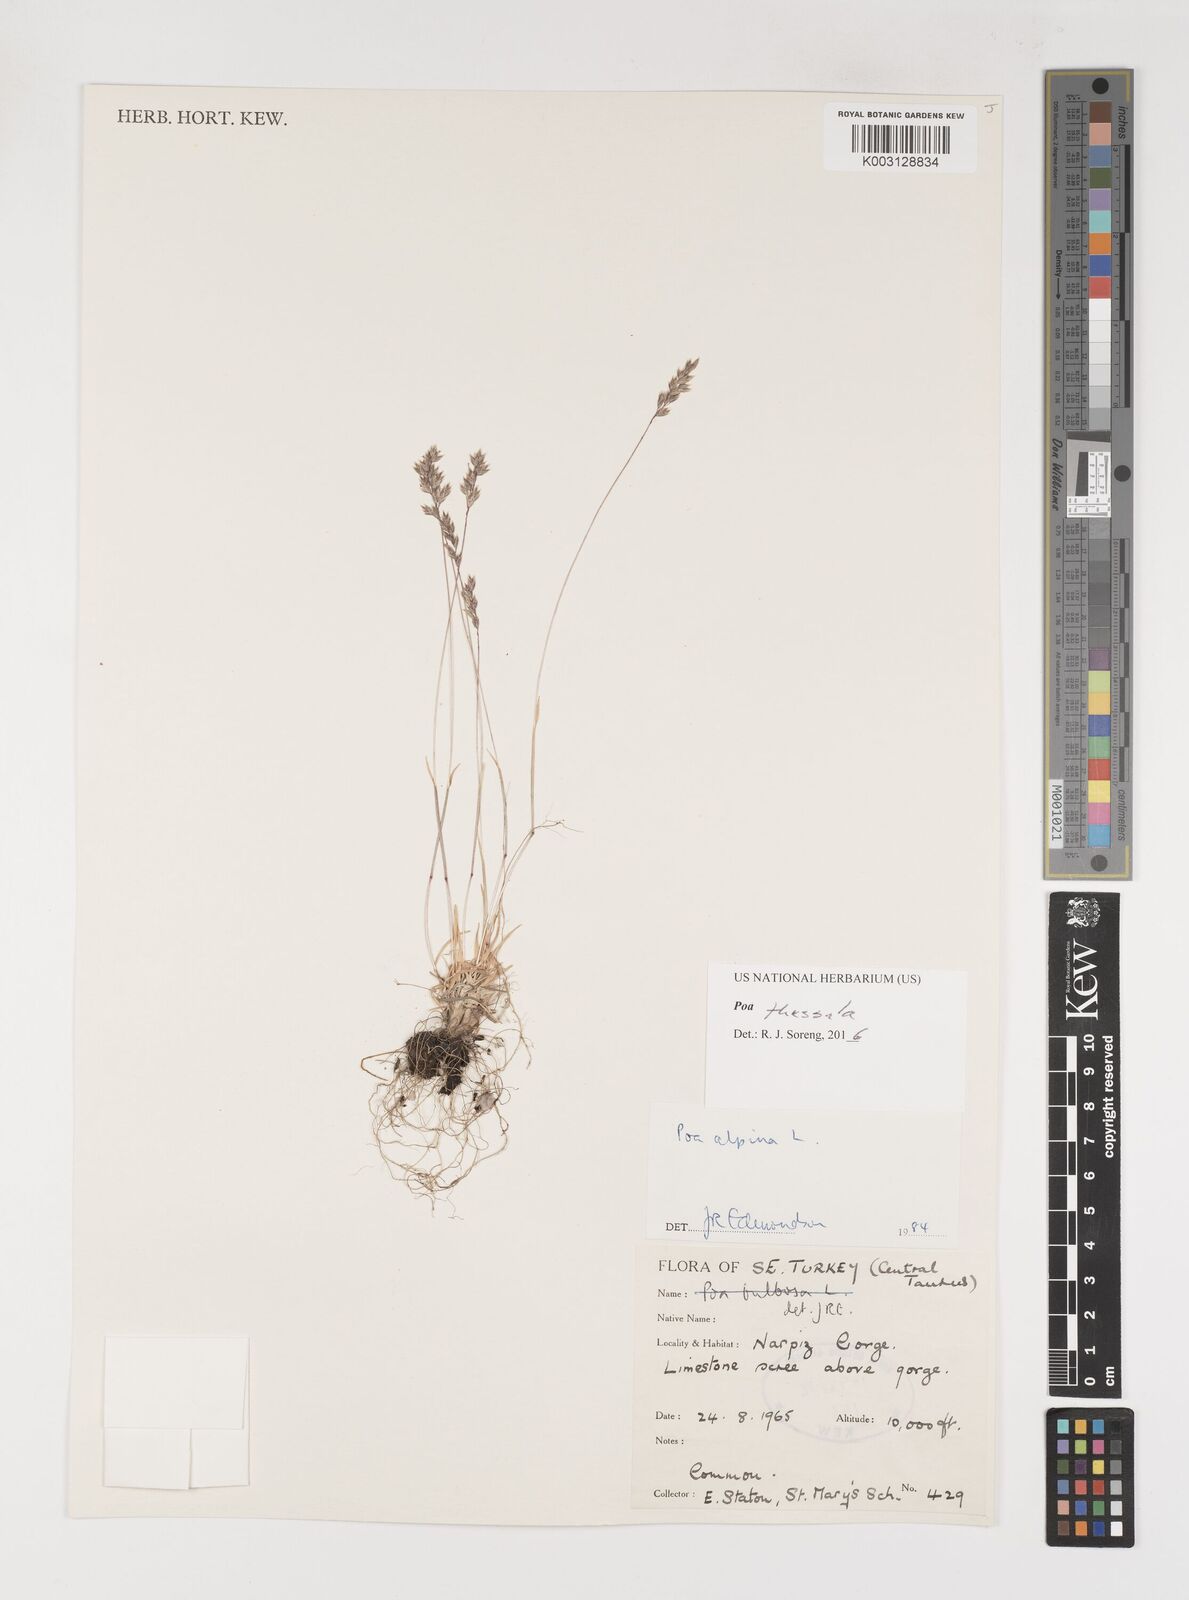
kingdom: Plantae
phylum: Tracheophyta
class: Liliopsida
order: Poales
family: Poaceae
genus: Poa
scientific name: Poa thessala
